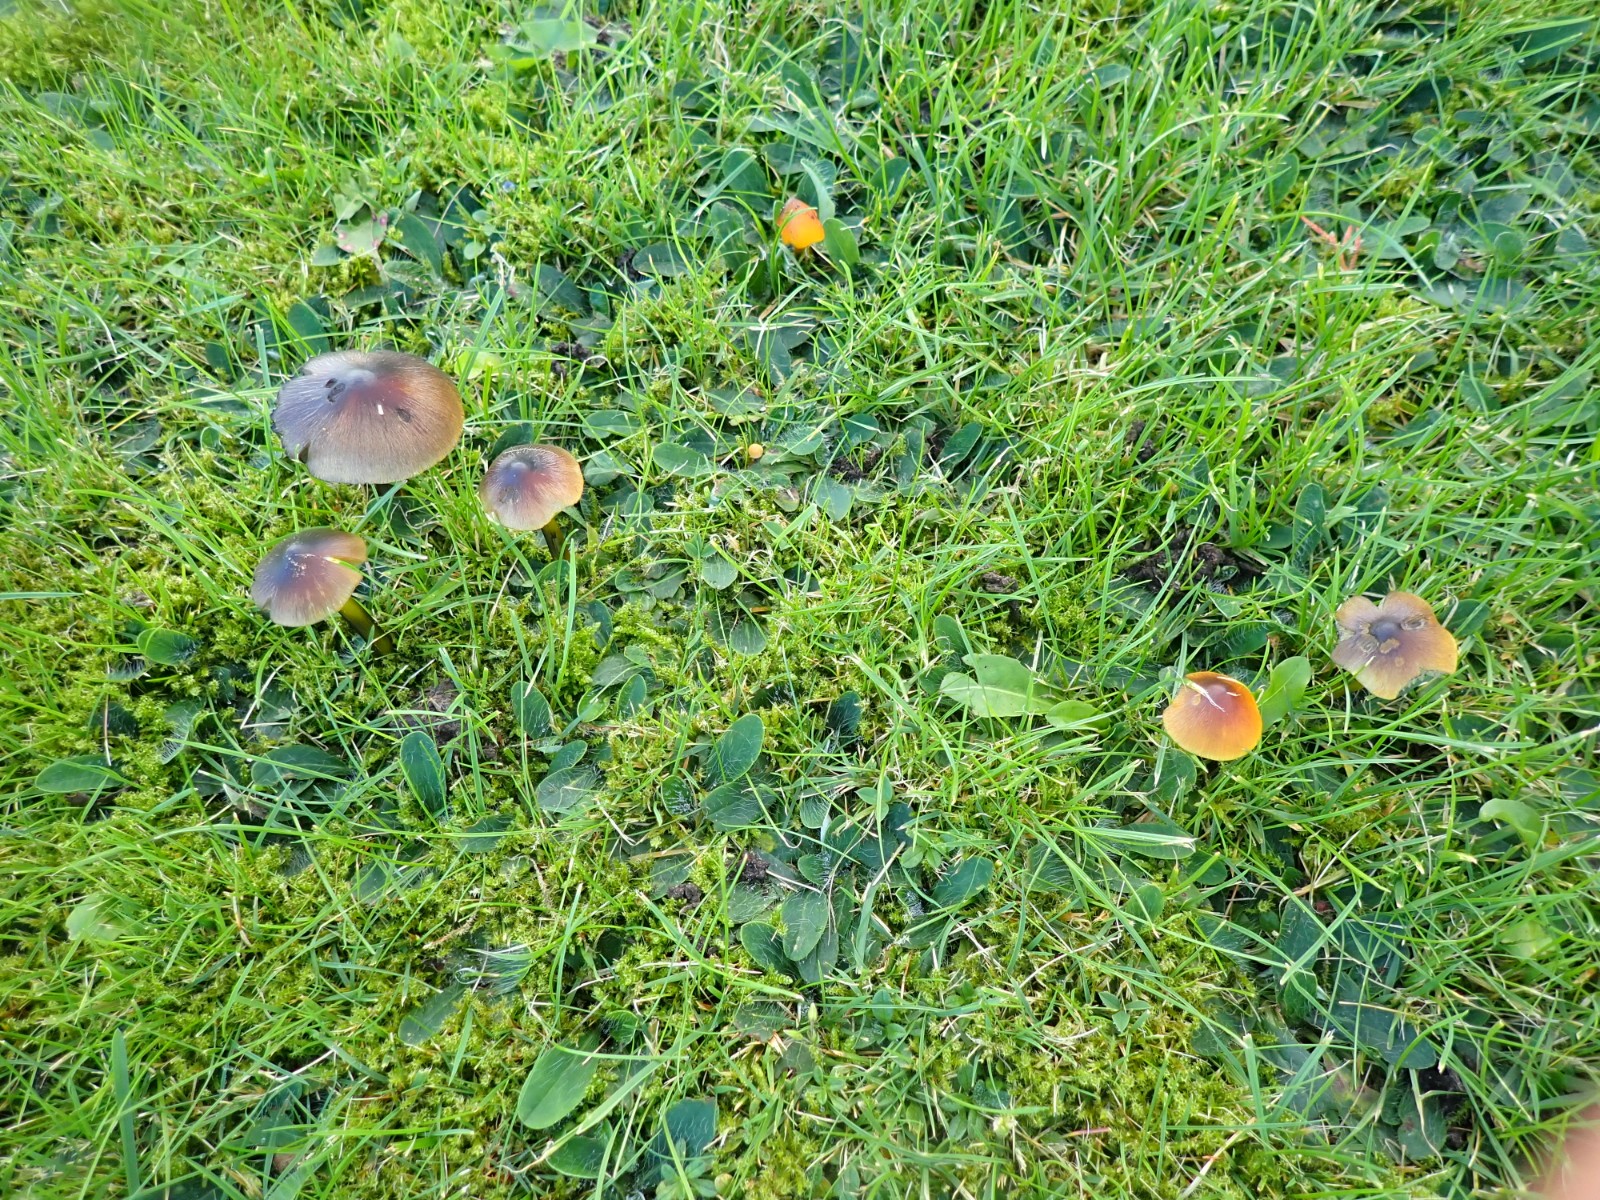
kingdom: Fungi
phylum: Basidiomycota
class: Agaricomycetes
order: Agaricales
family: Hygrophoraceae
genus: Hygrocybe
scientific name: Hygrocybe conica
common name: kegle-vokshat
